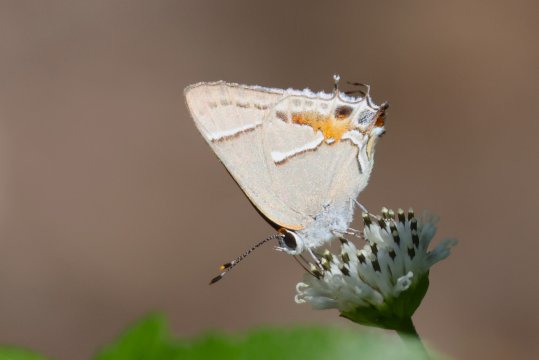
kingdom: Animalia
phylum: Arthropoda
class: Insecta
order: Lepidoptera
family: Lycaenidae
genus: Thecla
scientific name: Thecla martialis
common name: Martial Scrub-Hairstreak
